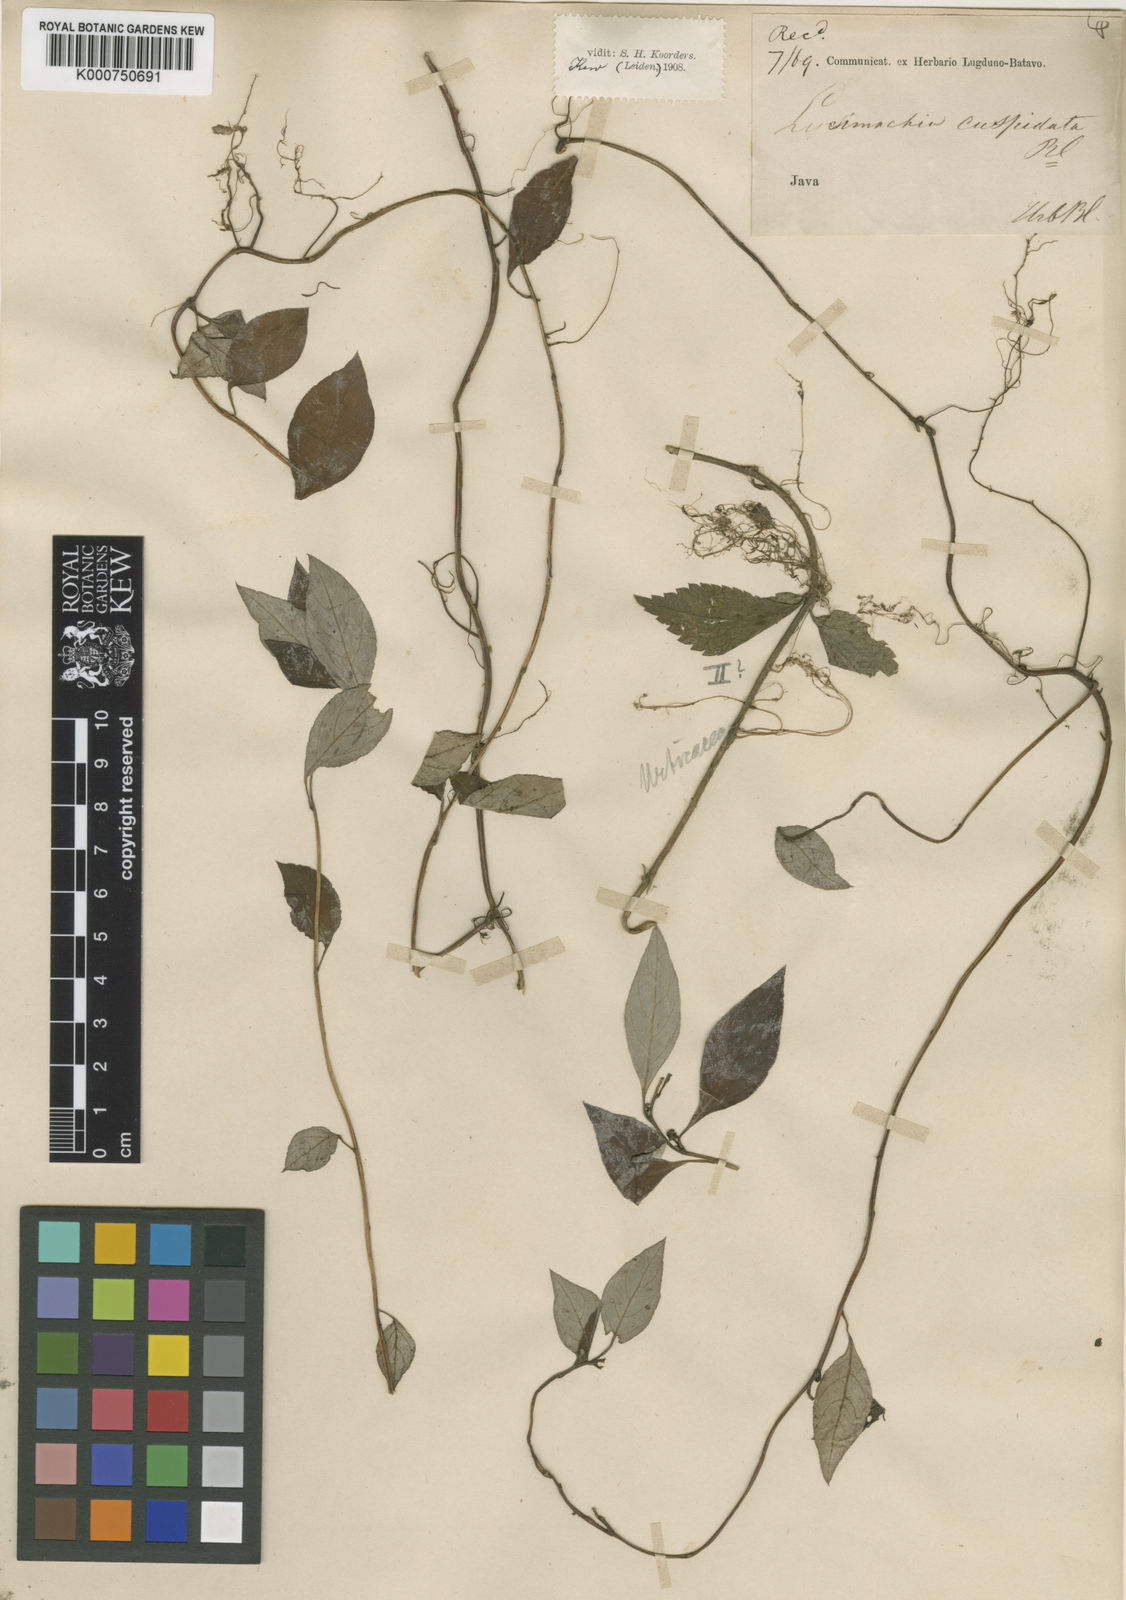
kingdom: Plantae
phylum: Tracheophyta
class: Magnoliopsida
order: Ericales
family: Primulaceae
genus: Lysimachia
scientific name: Lysimachia montana
